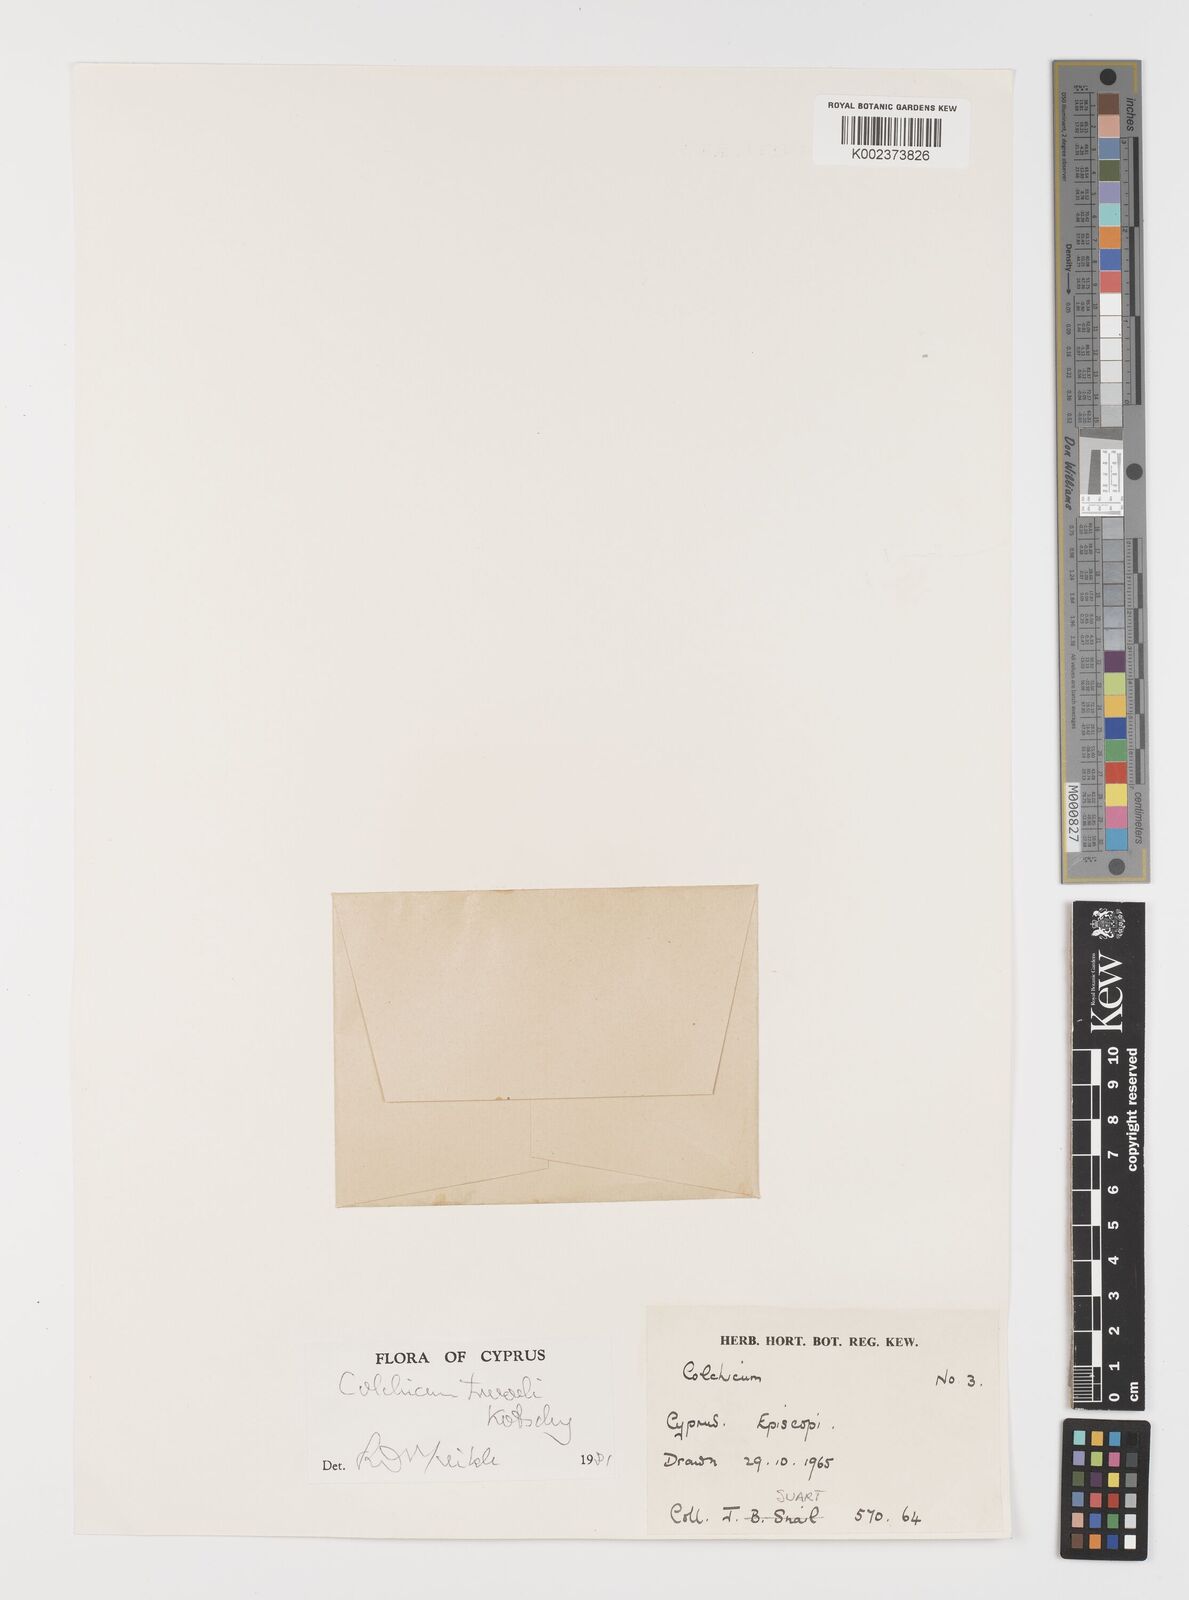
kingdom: Plantae
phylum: Tracheophyta
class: Liliopsida
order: Liliales
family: Colchicaceae
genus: Colchicum
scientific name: Colchicum troodi
